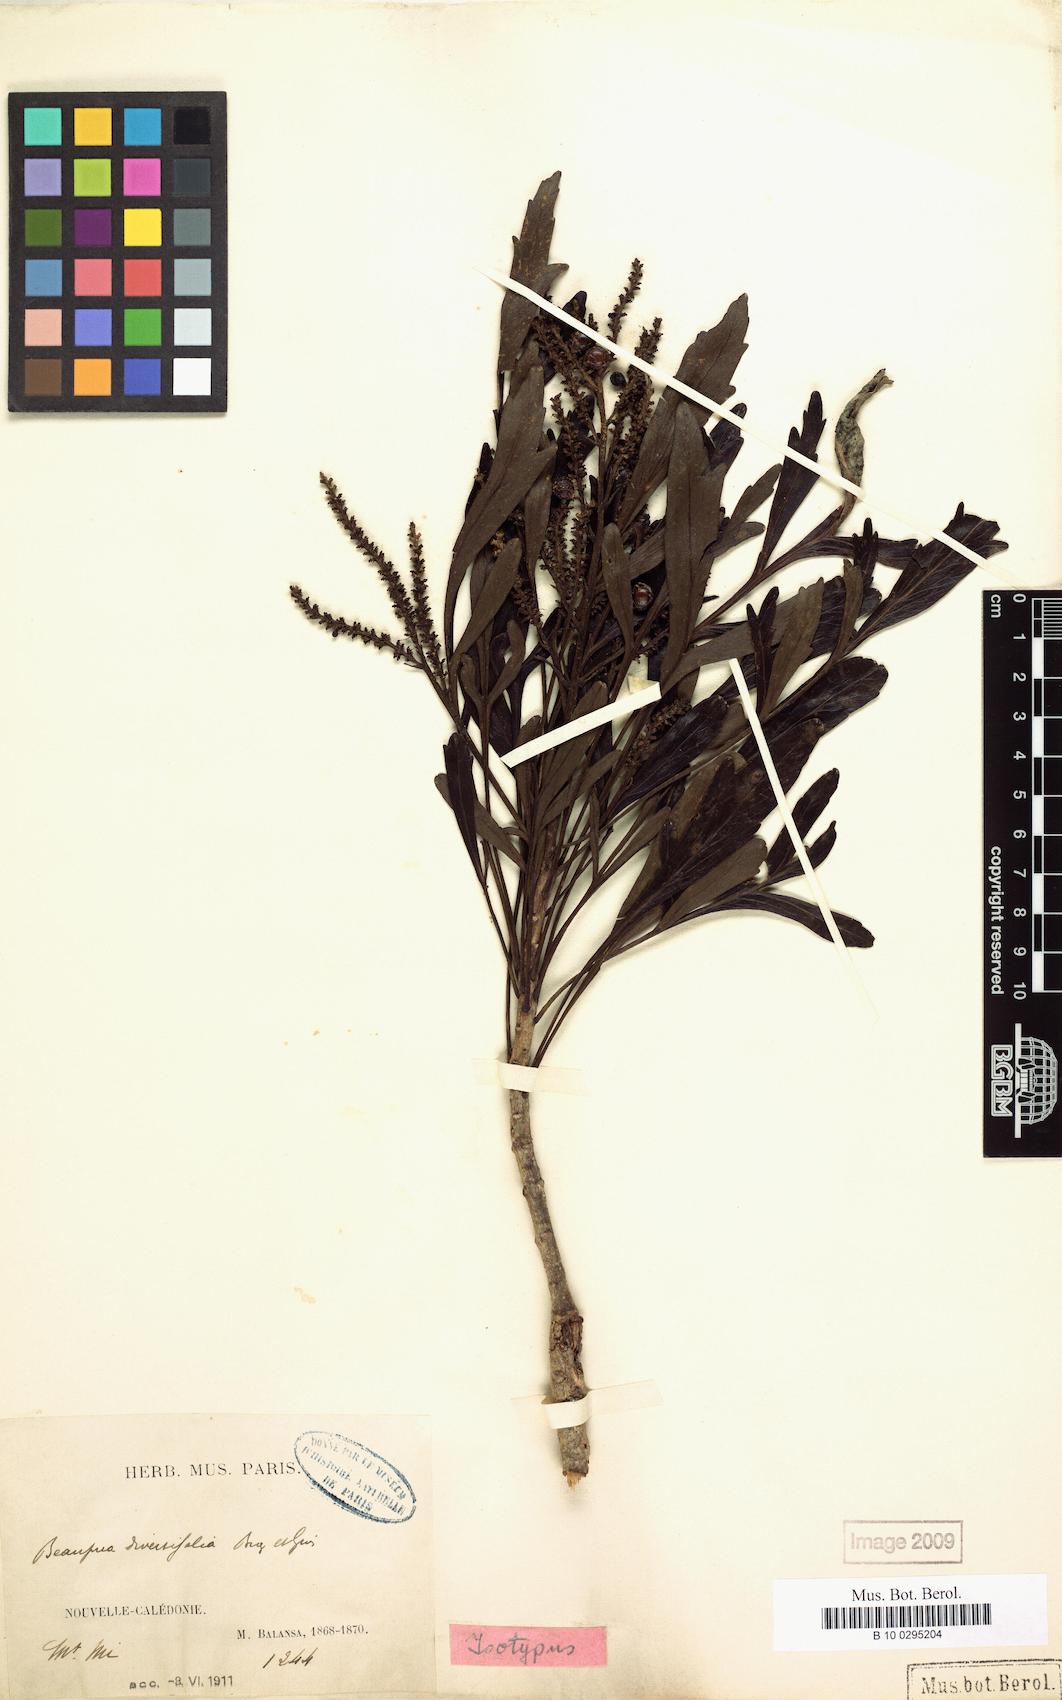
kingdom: Plantae
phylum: Tracheophyta
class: Magnoliopsida
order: Proteales
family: Proteaceae
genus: Beauprea
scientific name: Beauprea spathulifolia
